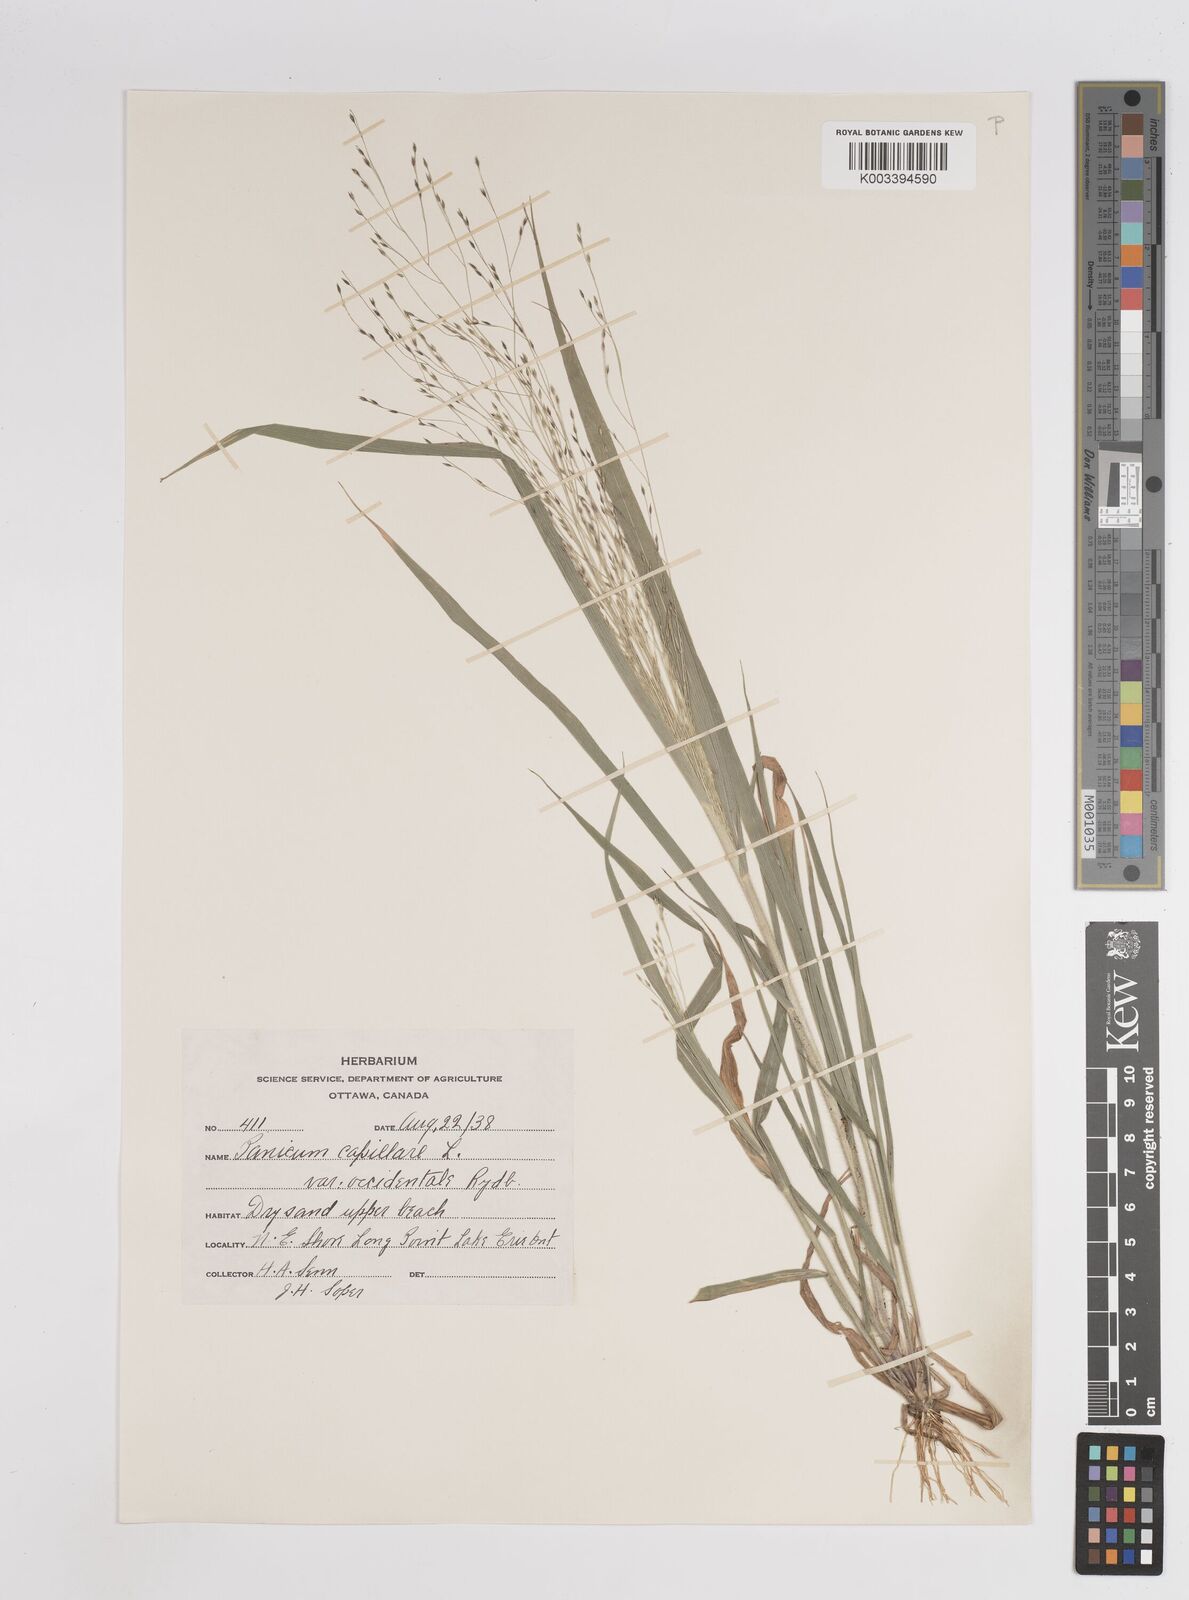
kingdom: Plantae
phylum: Tracheophyta
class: Liliopsida
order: Poales
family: Poaceae
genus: Panicum
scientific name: Panicum capillare
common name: Witch-grass
